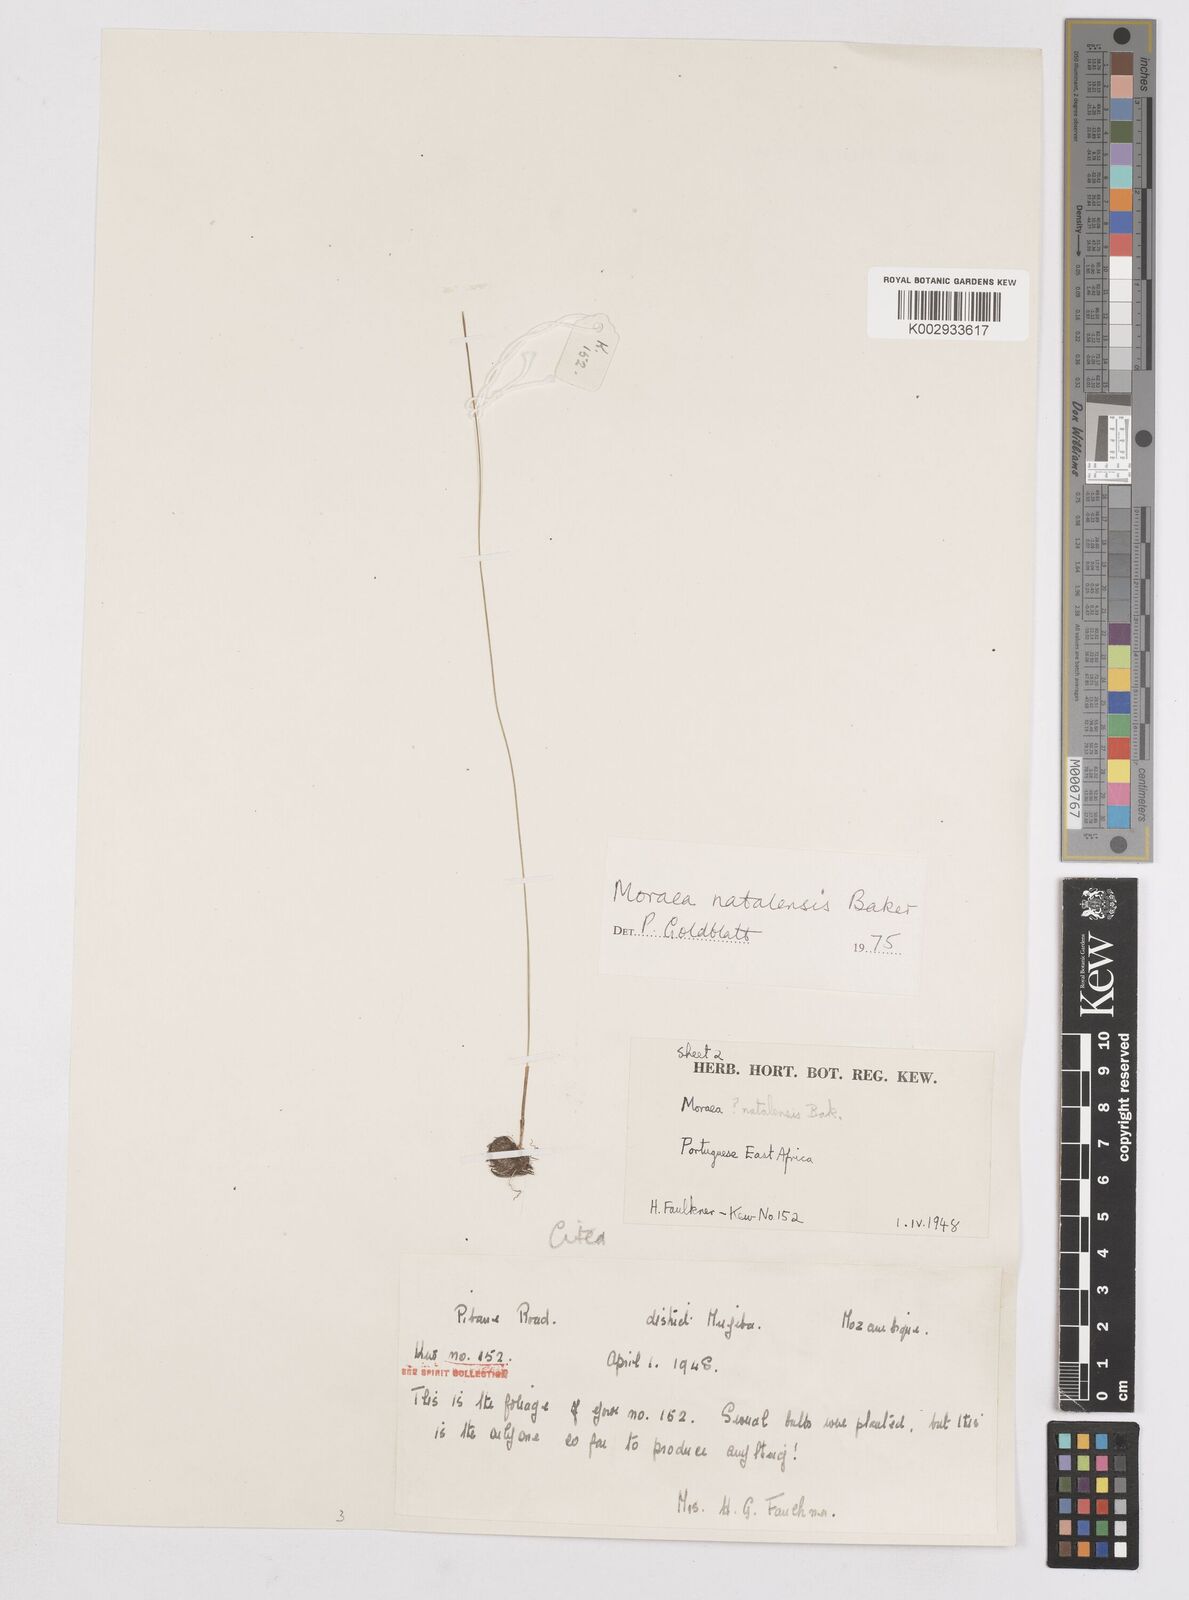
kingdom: Plantae
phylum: Tracheophyta
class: Liliopsida
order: Asparagales
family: Iridaceae
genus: Moraea
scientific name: Moraea natalensis
